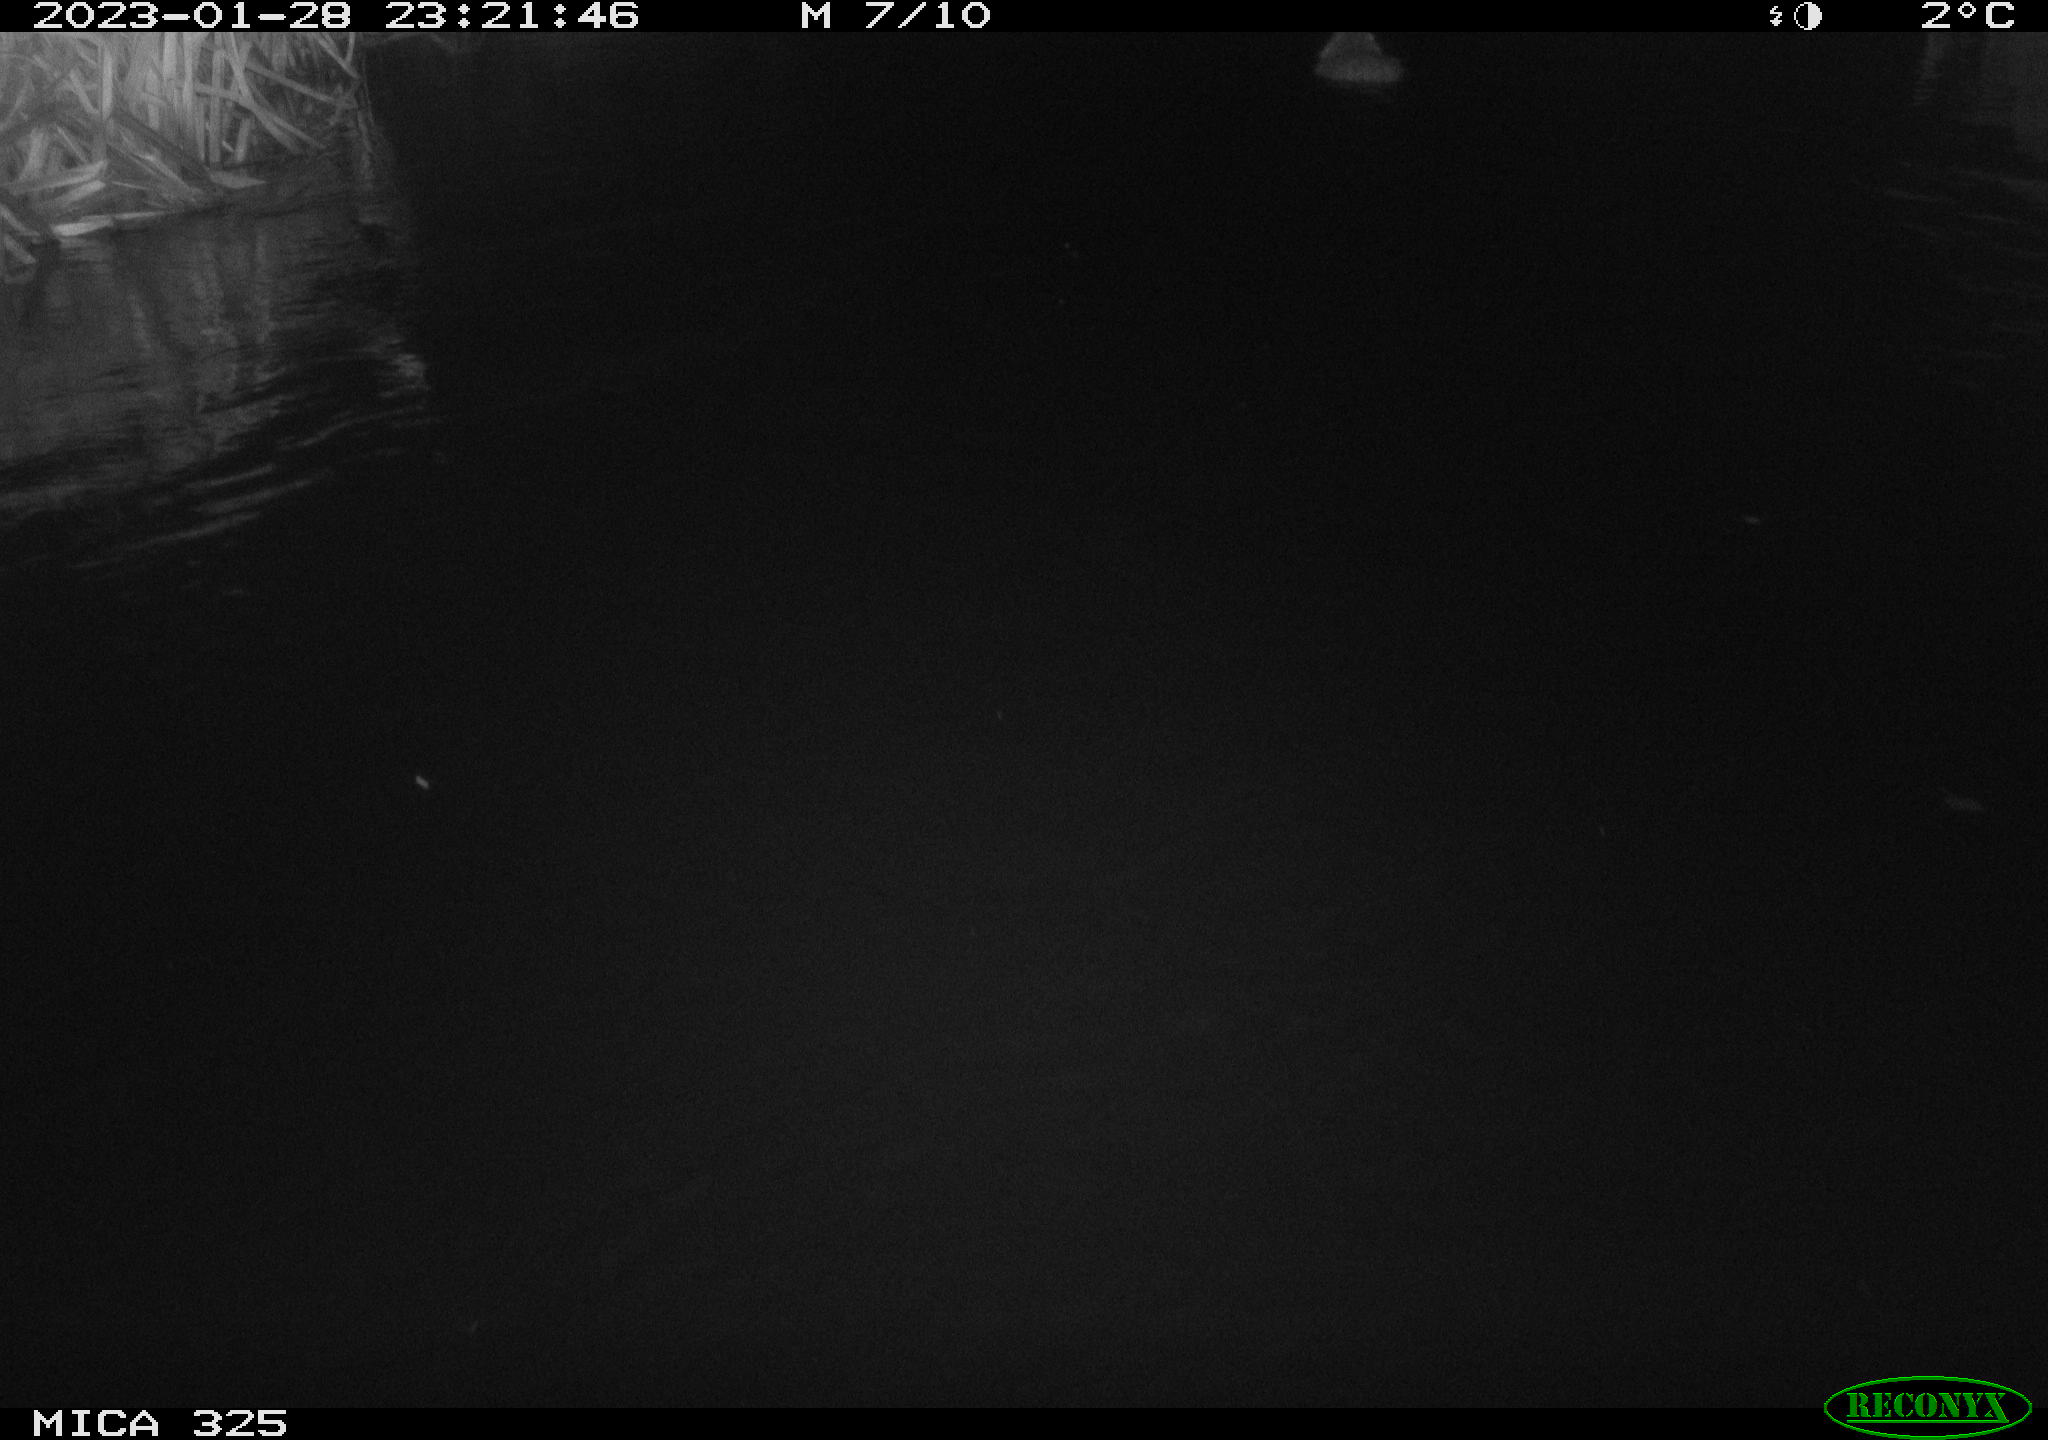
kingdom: Animalia
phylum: Chordata
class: Mammalia
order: Rodentia
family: Myocastoridae
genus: Myocastor
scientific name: Myocastor coypus
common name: Coypu
